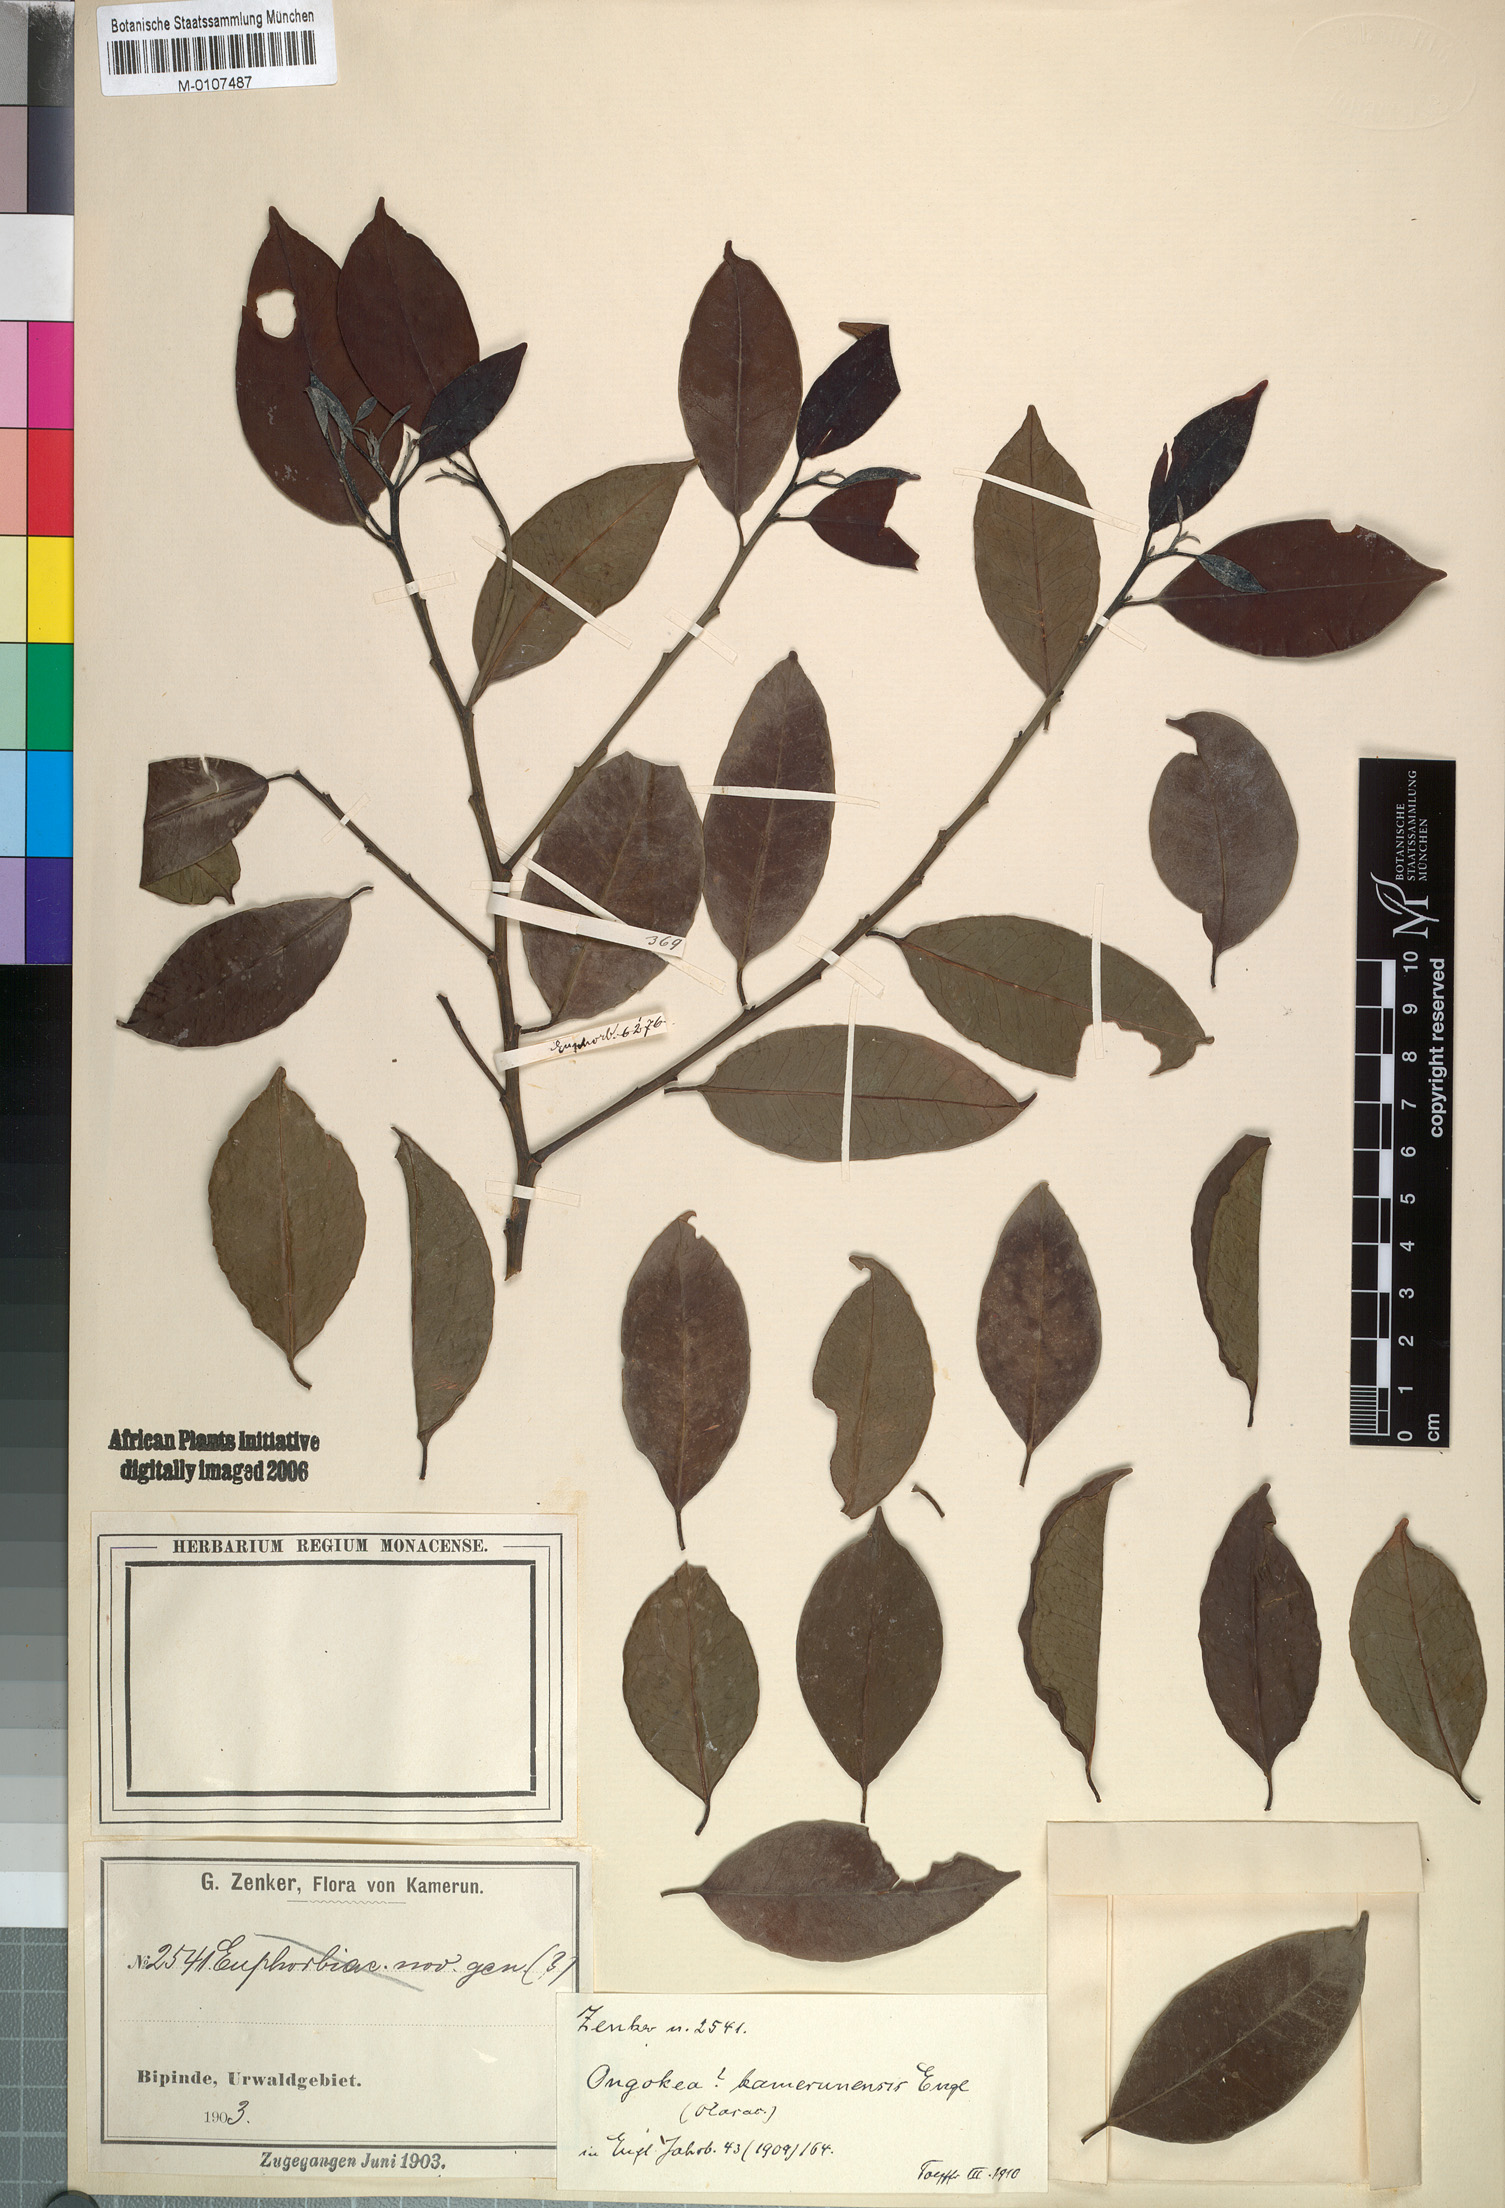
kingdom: Plantae
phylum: Tracheophyta
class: Magnoliopsida
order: Santalales
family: Aptandraceae
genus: Ongokea
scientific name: Ongokea gore
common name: Boleko-nut
